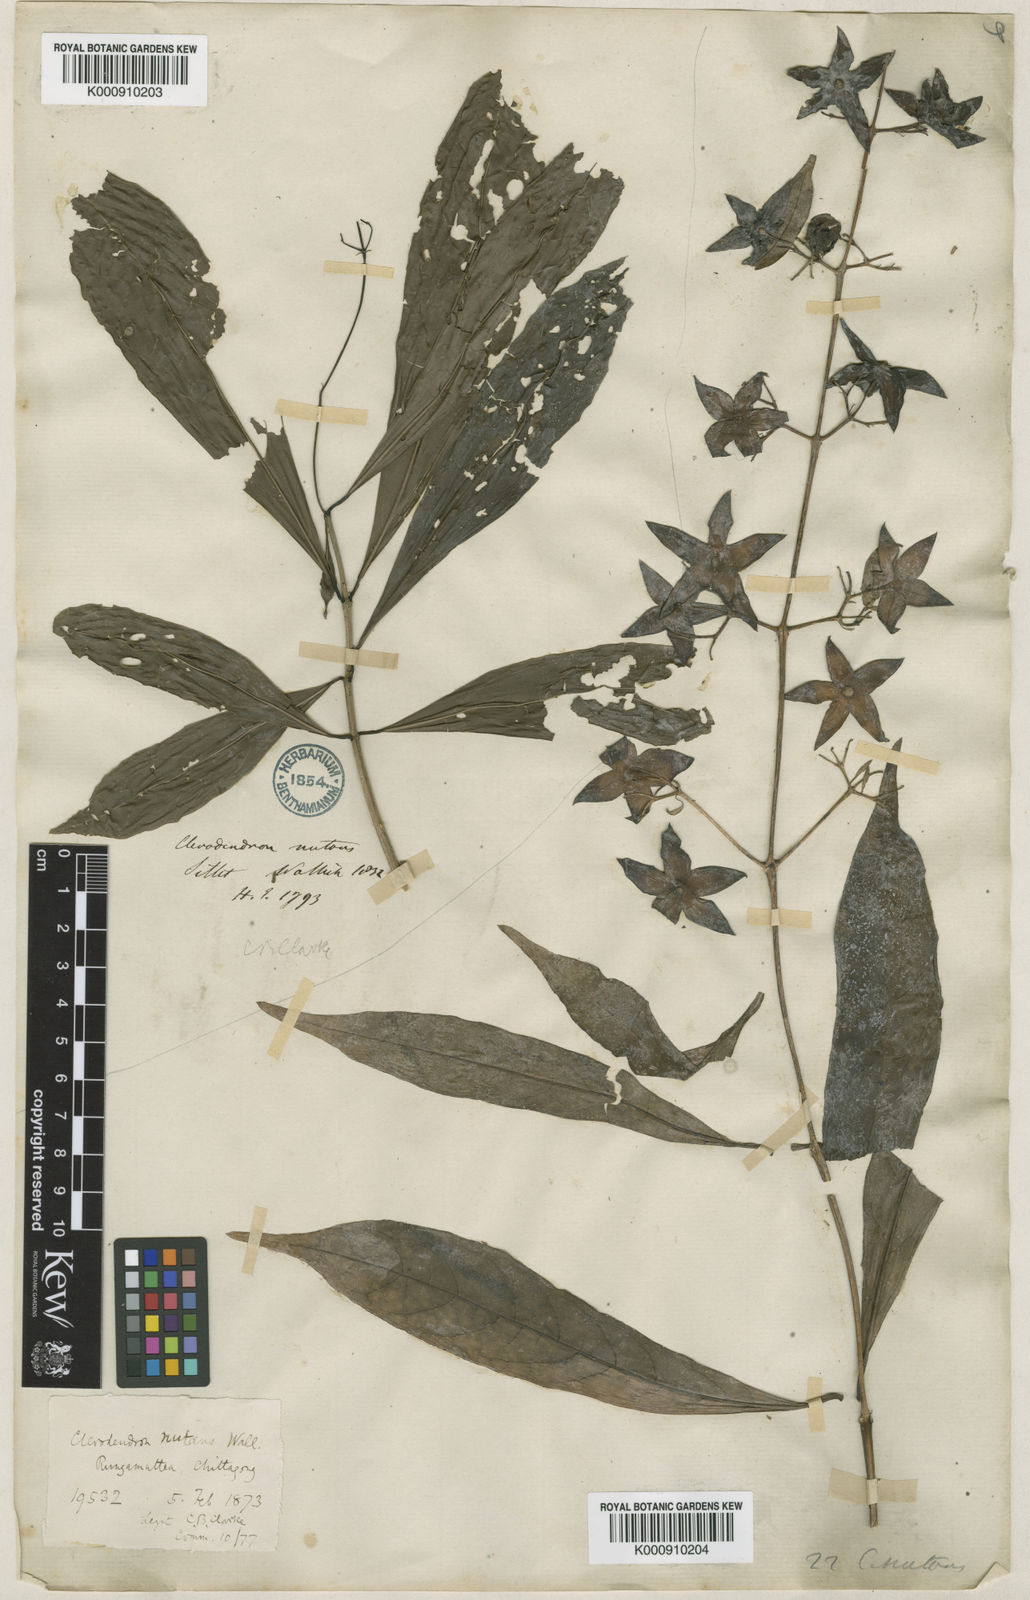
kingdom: Plantae
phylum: Tracheophyta
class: Magnoliopsida
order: Lamiales
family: Lamiaceae
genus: Clerodendrum
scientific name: Clerodendrum
